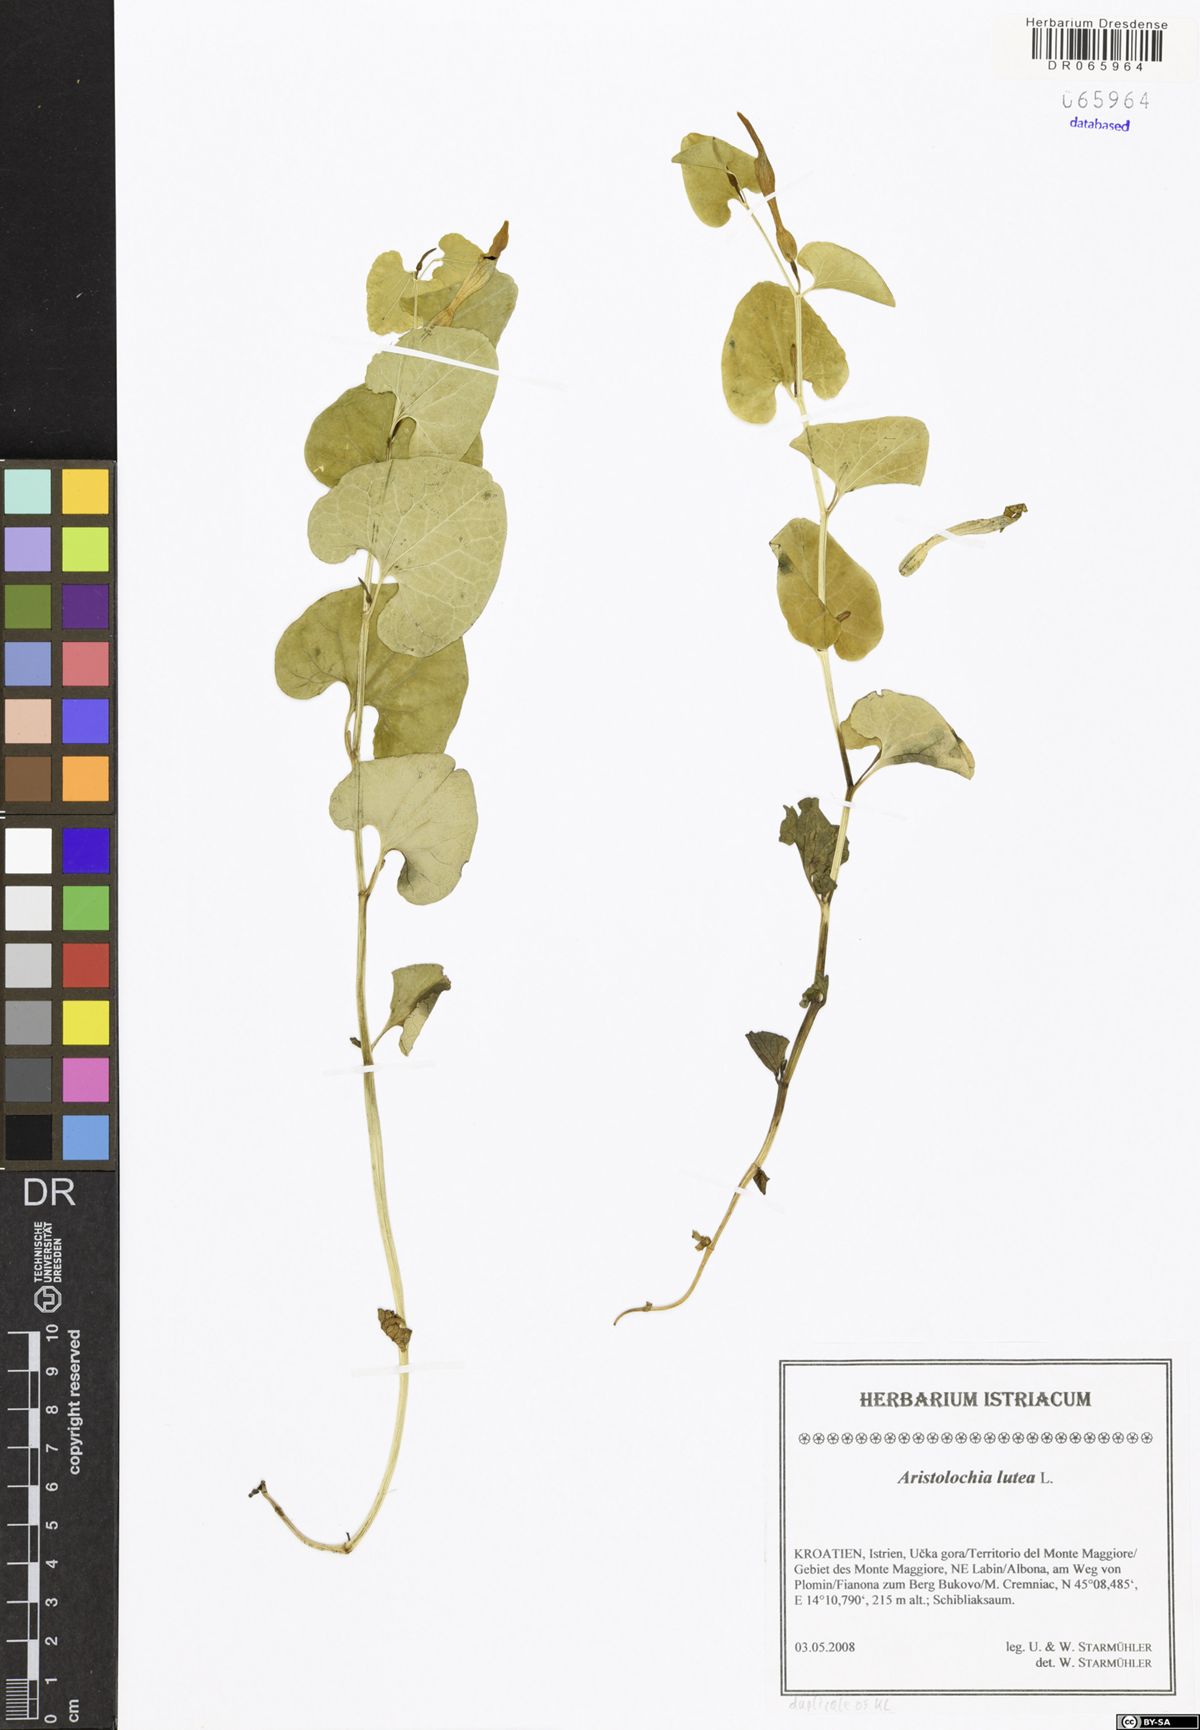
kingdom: Plantae
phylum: Tracheophyta
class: Magnoliopsida
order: Piperales
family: Aristolochiaceae
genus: Aristolochia
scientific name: Aristolochia lutea
